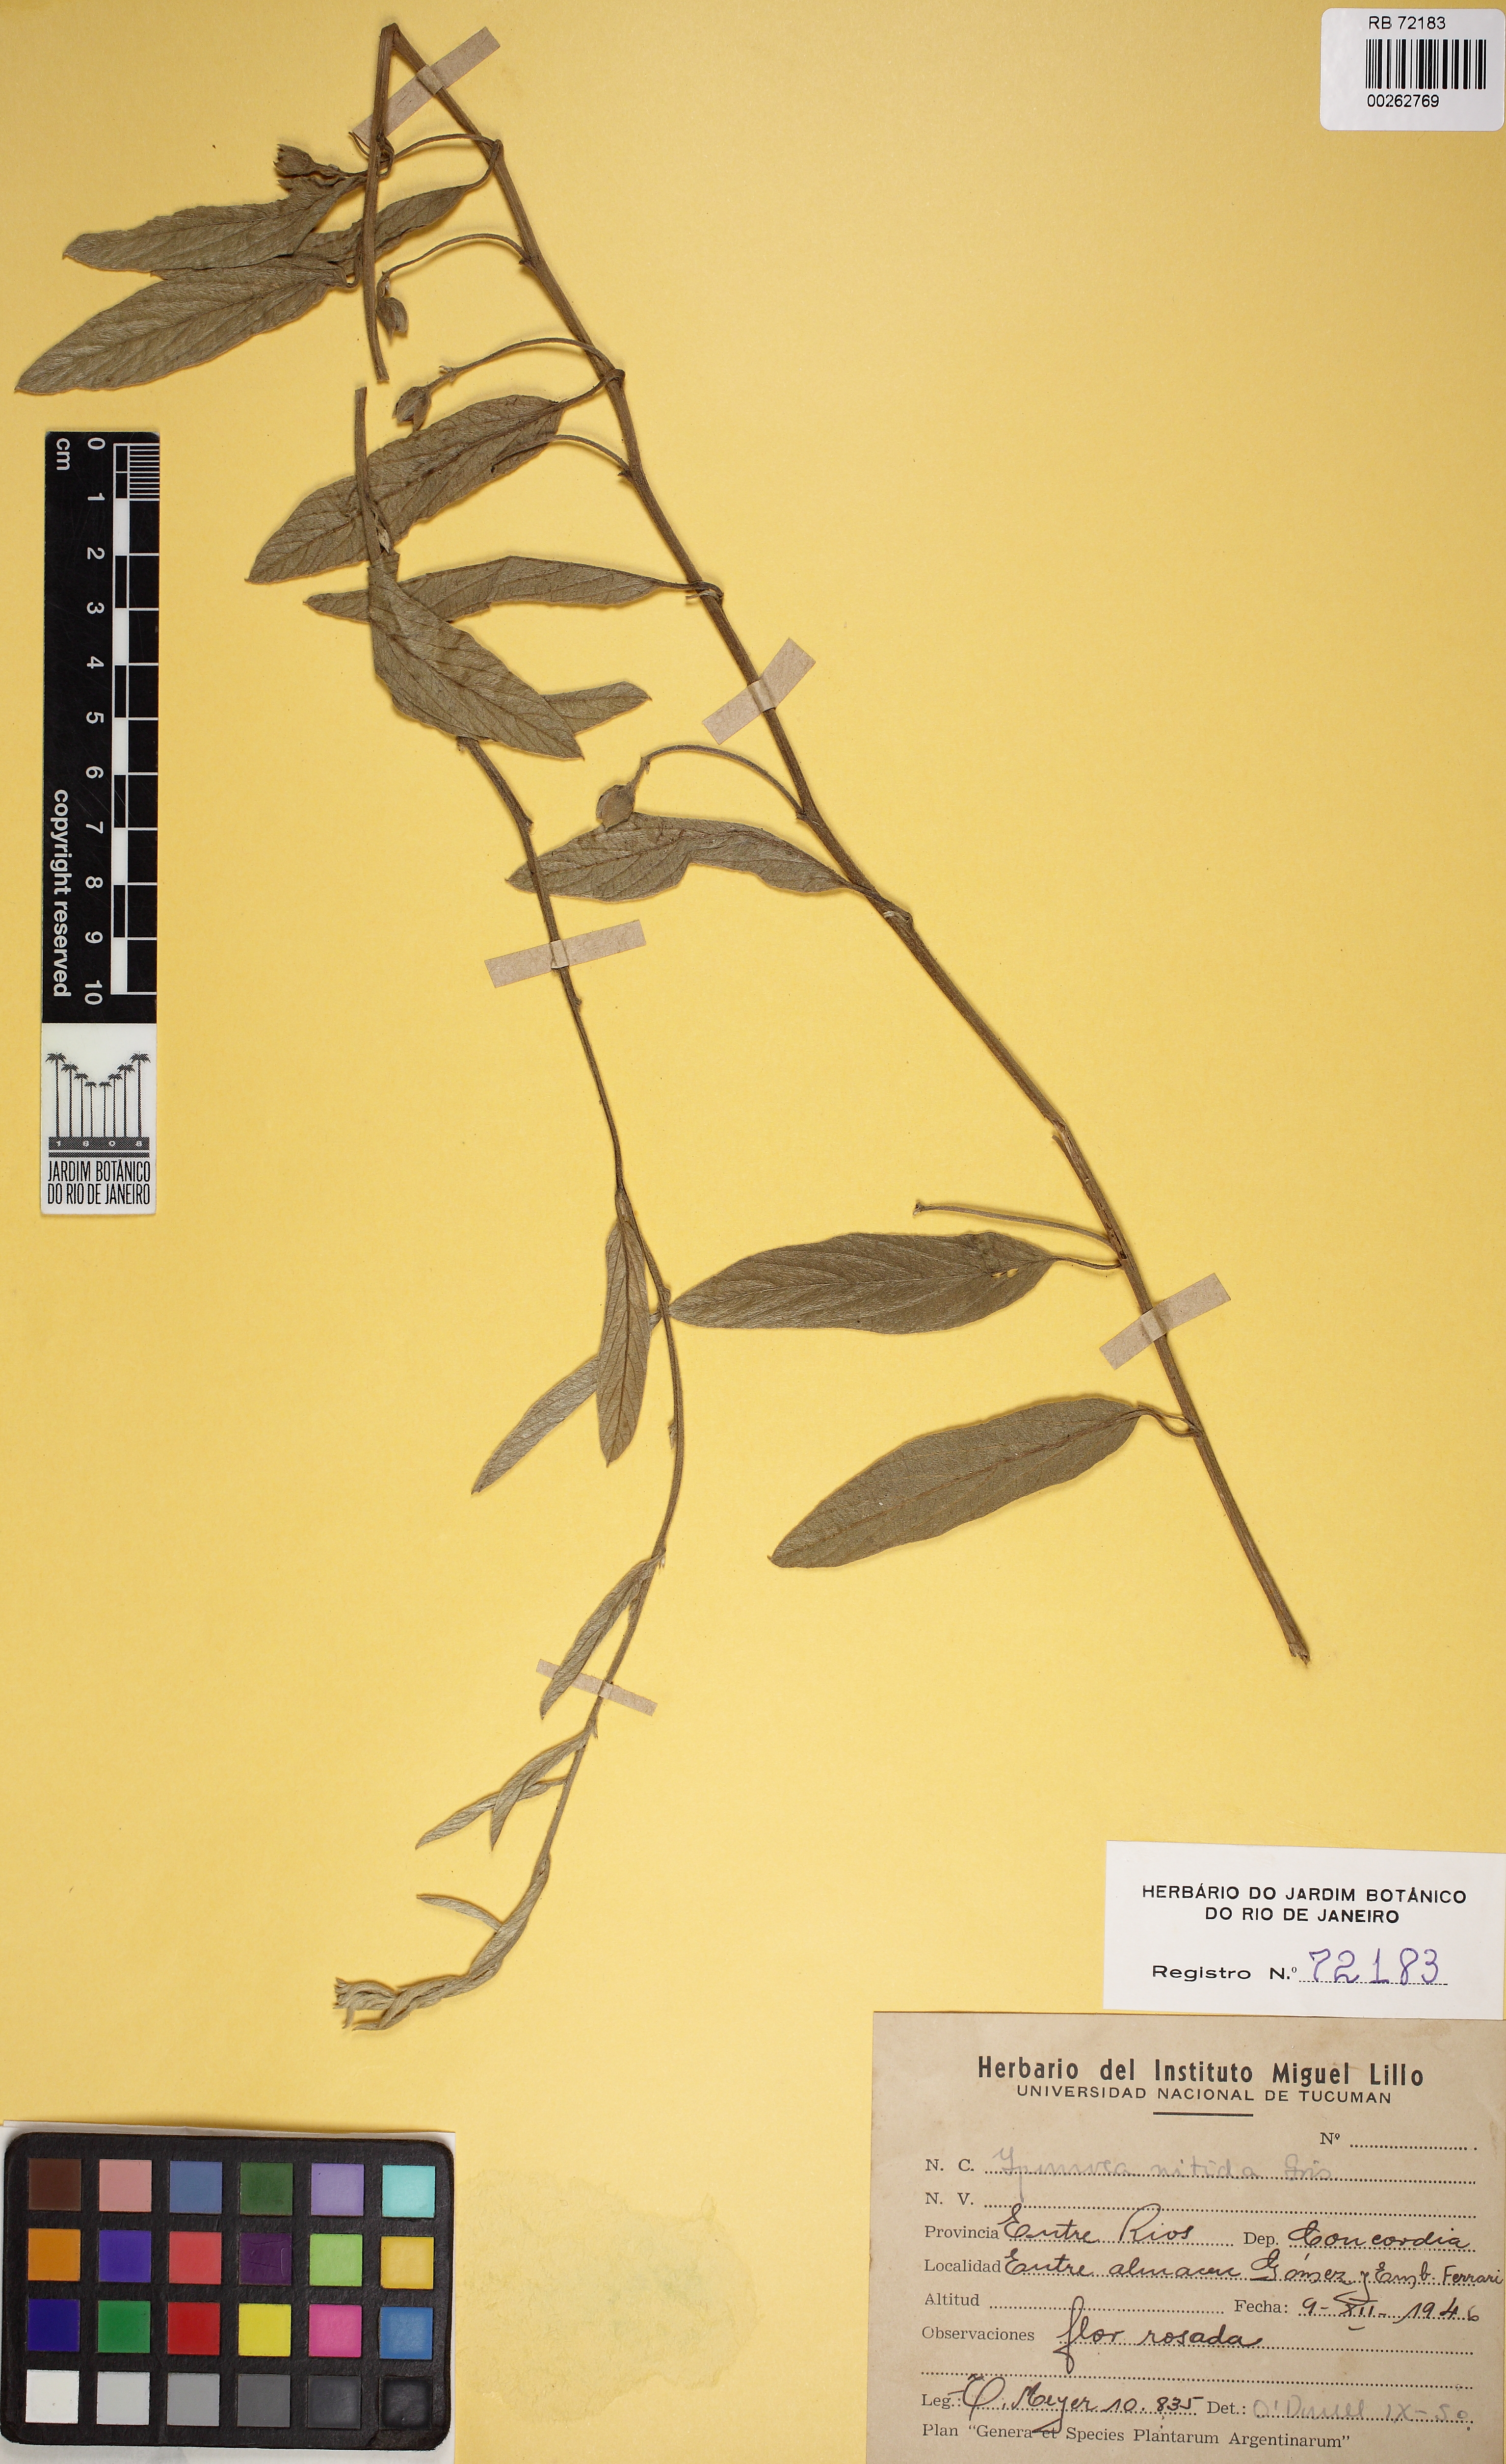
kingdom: Plantae
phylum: Tracheophyta
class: Magnoliopsida
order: Solanales
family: Convolvulaceae
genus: Ipomoea
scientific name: Ipomoea nitida
